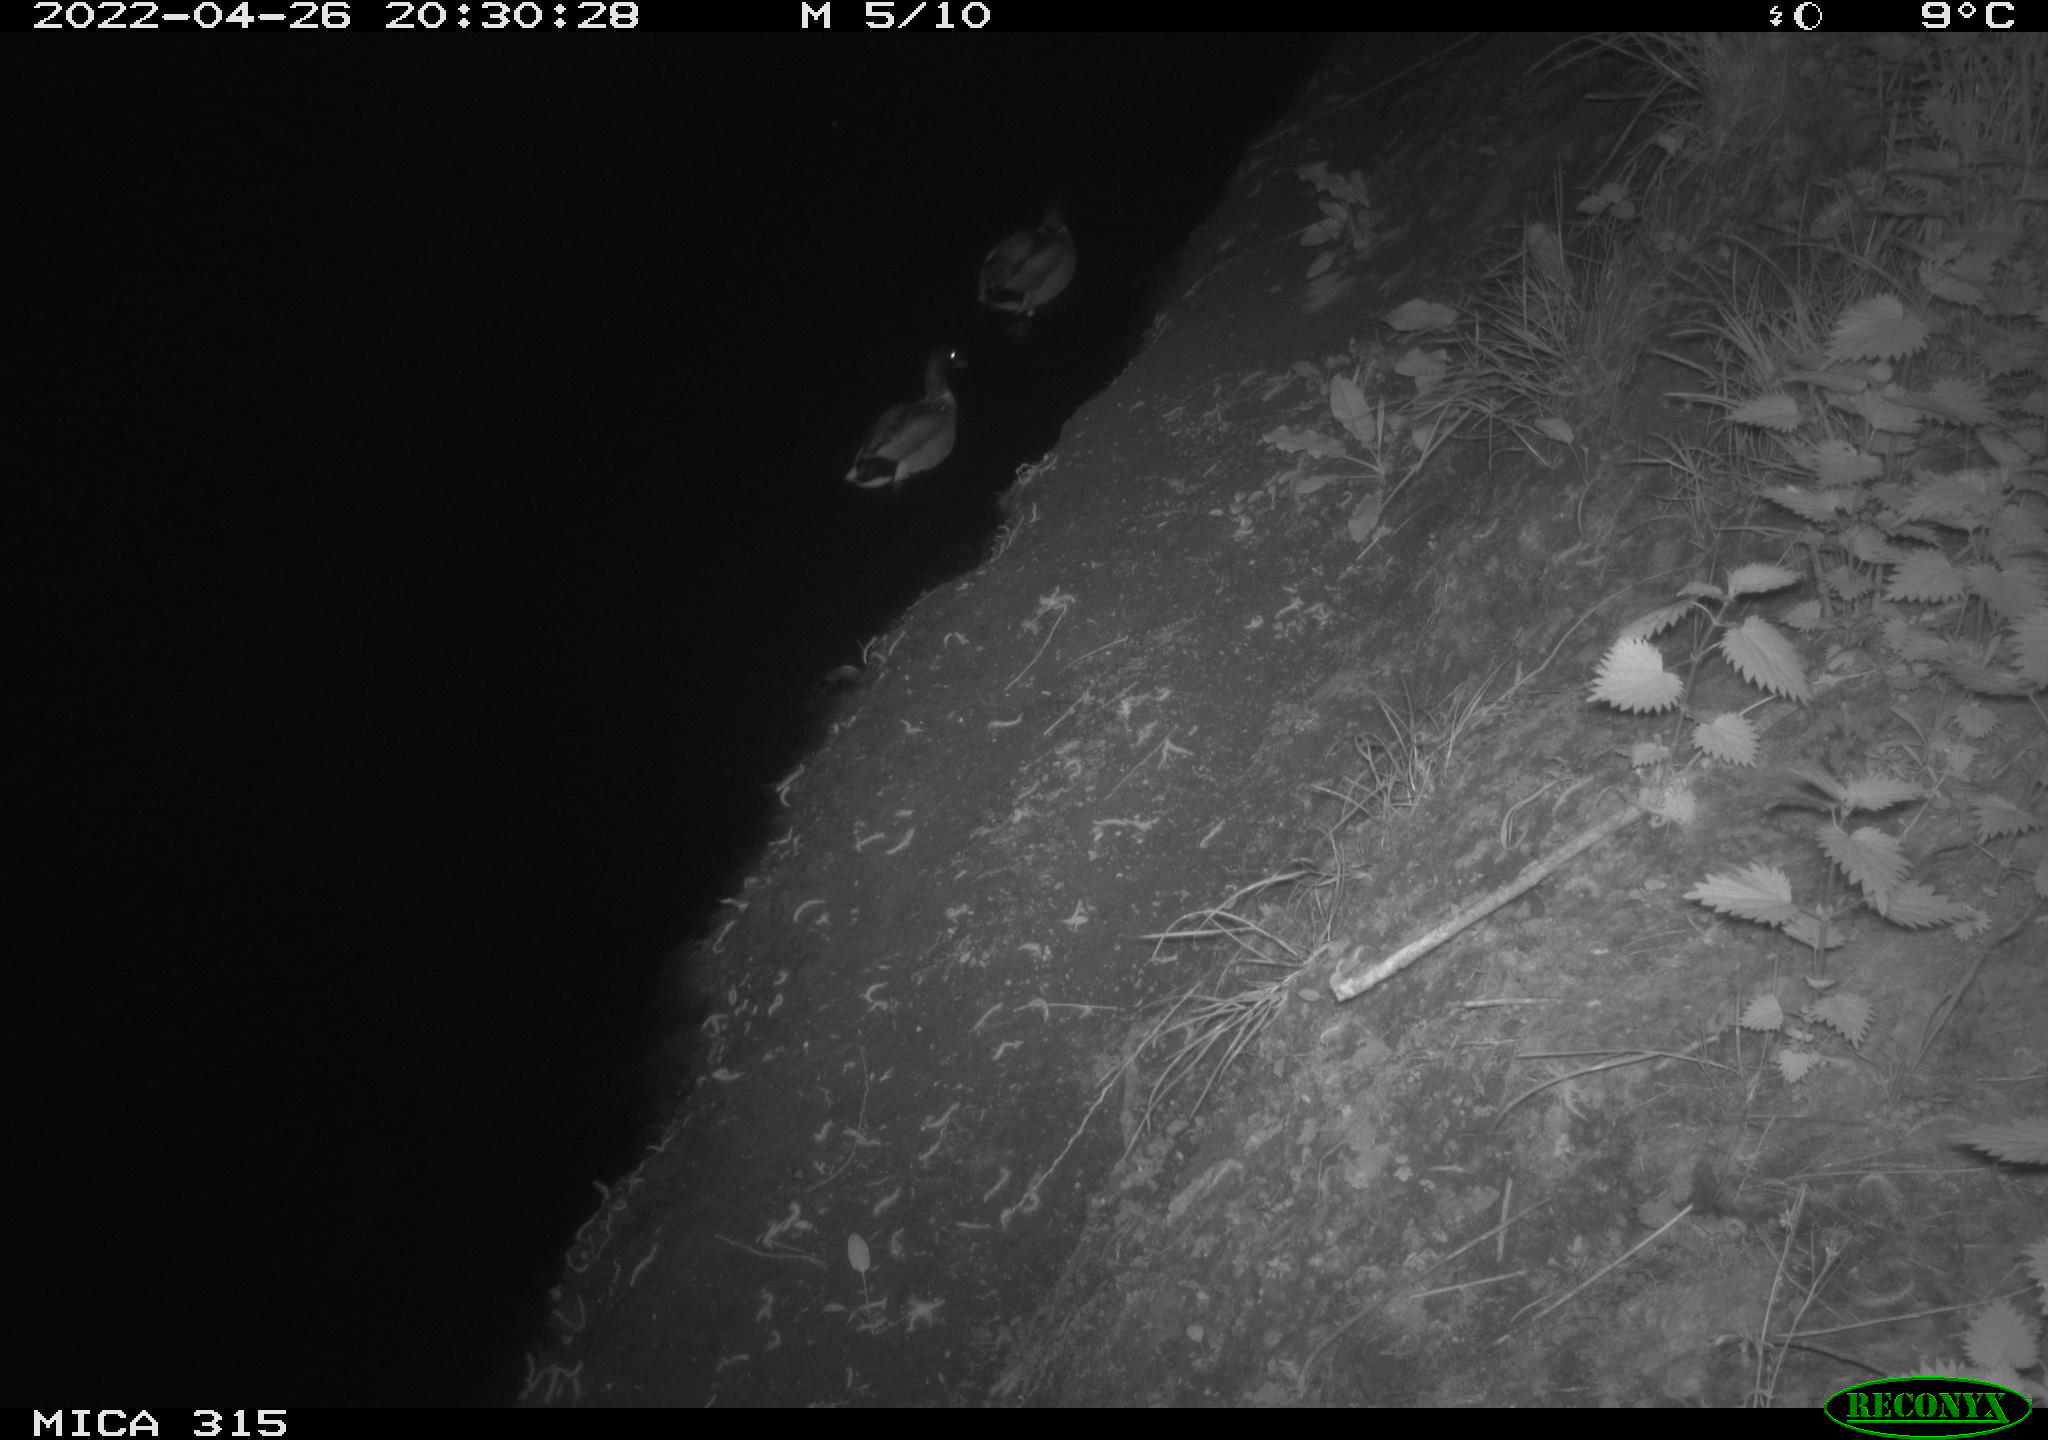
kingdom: Animalia
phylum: Chordata
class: Aves
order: Anseriformes
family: Anatidae
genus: Anas
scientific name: Anas platyrhynchos
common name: Mallard
